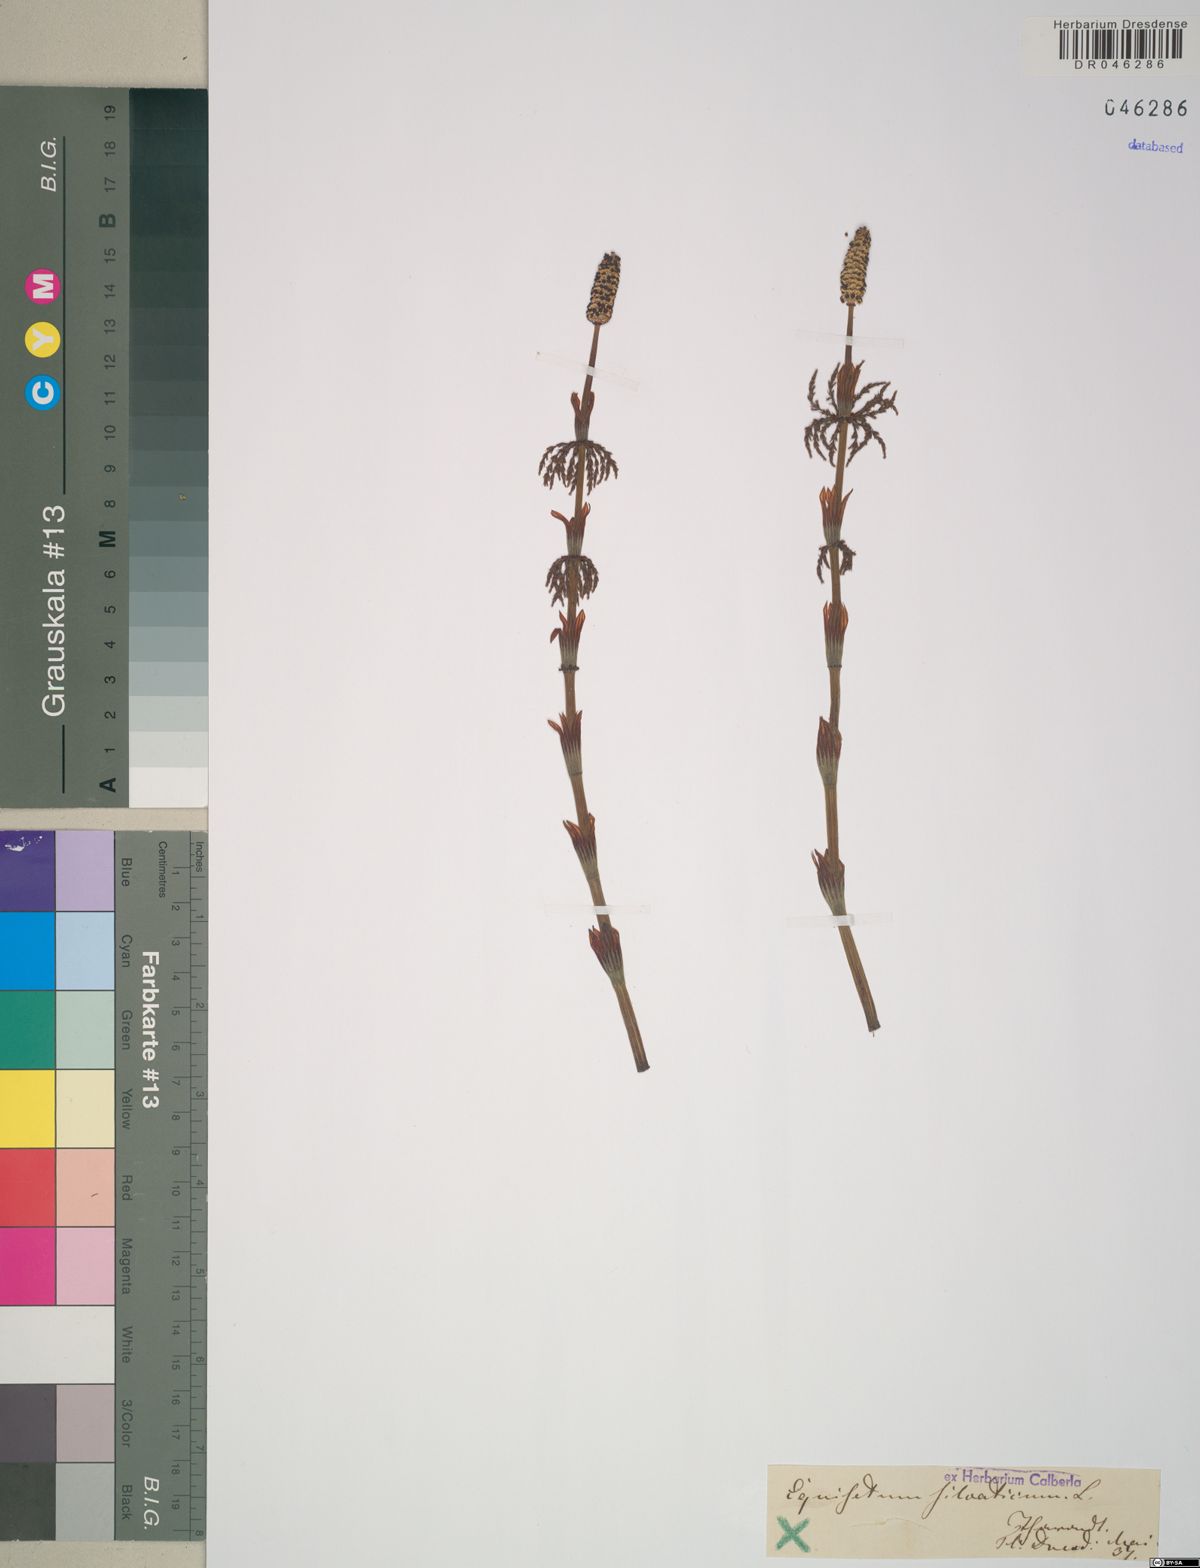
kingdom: Plantae
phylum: Tracheophyta
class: Polypodiopsida
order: Equisetales
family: Equisetaceae
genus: Equisetum
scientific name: Equisetum sylvaticum
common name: Wood horsetail
